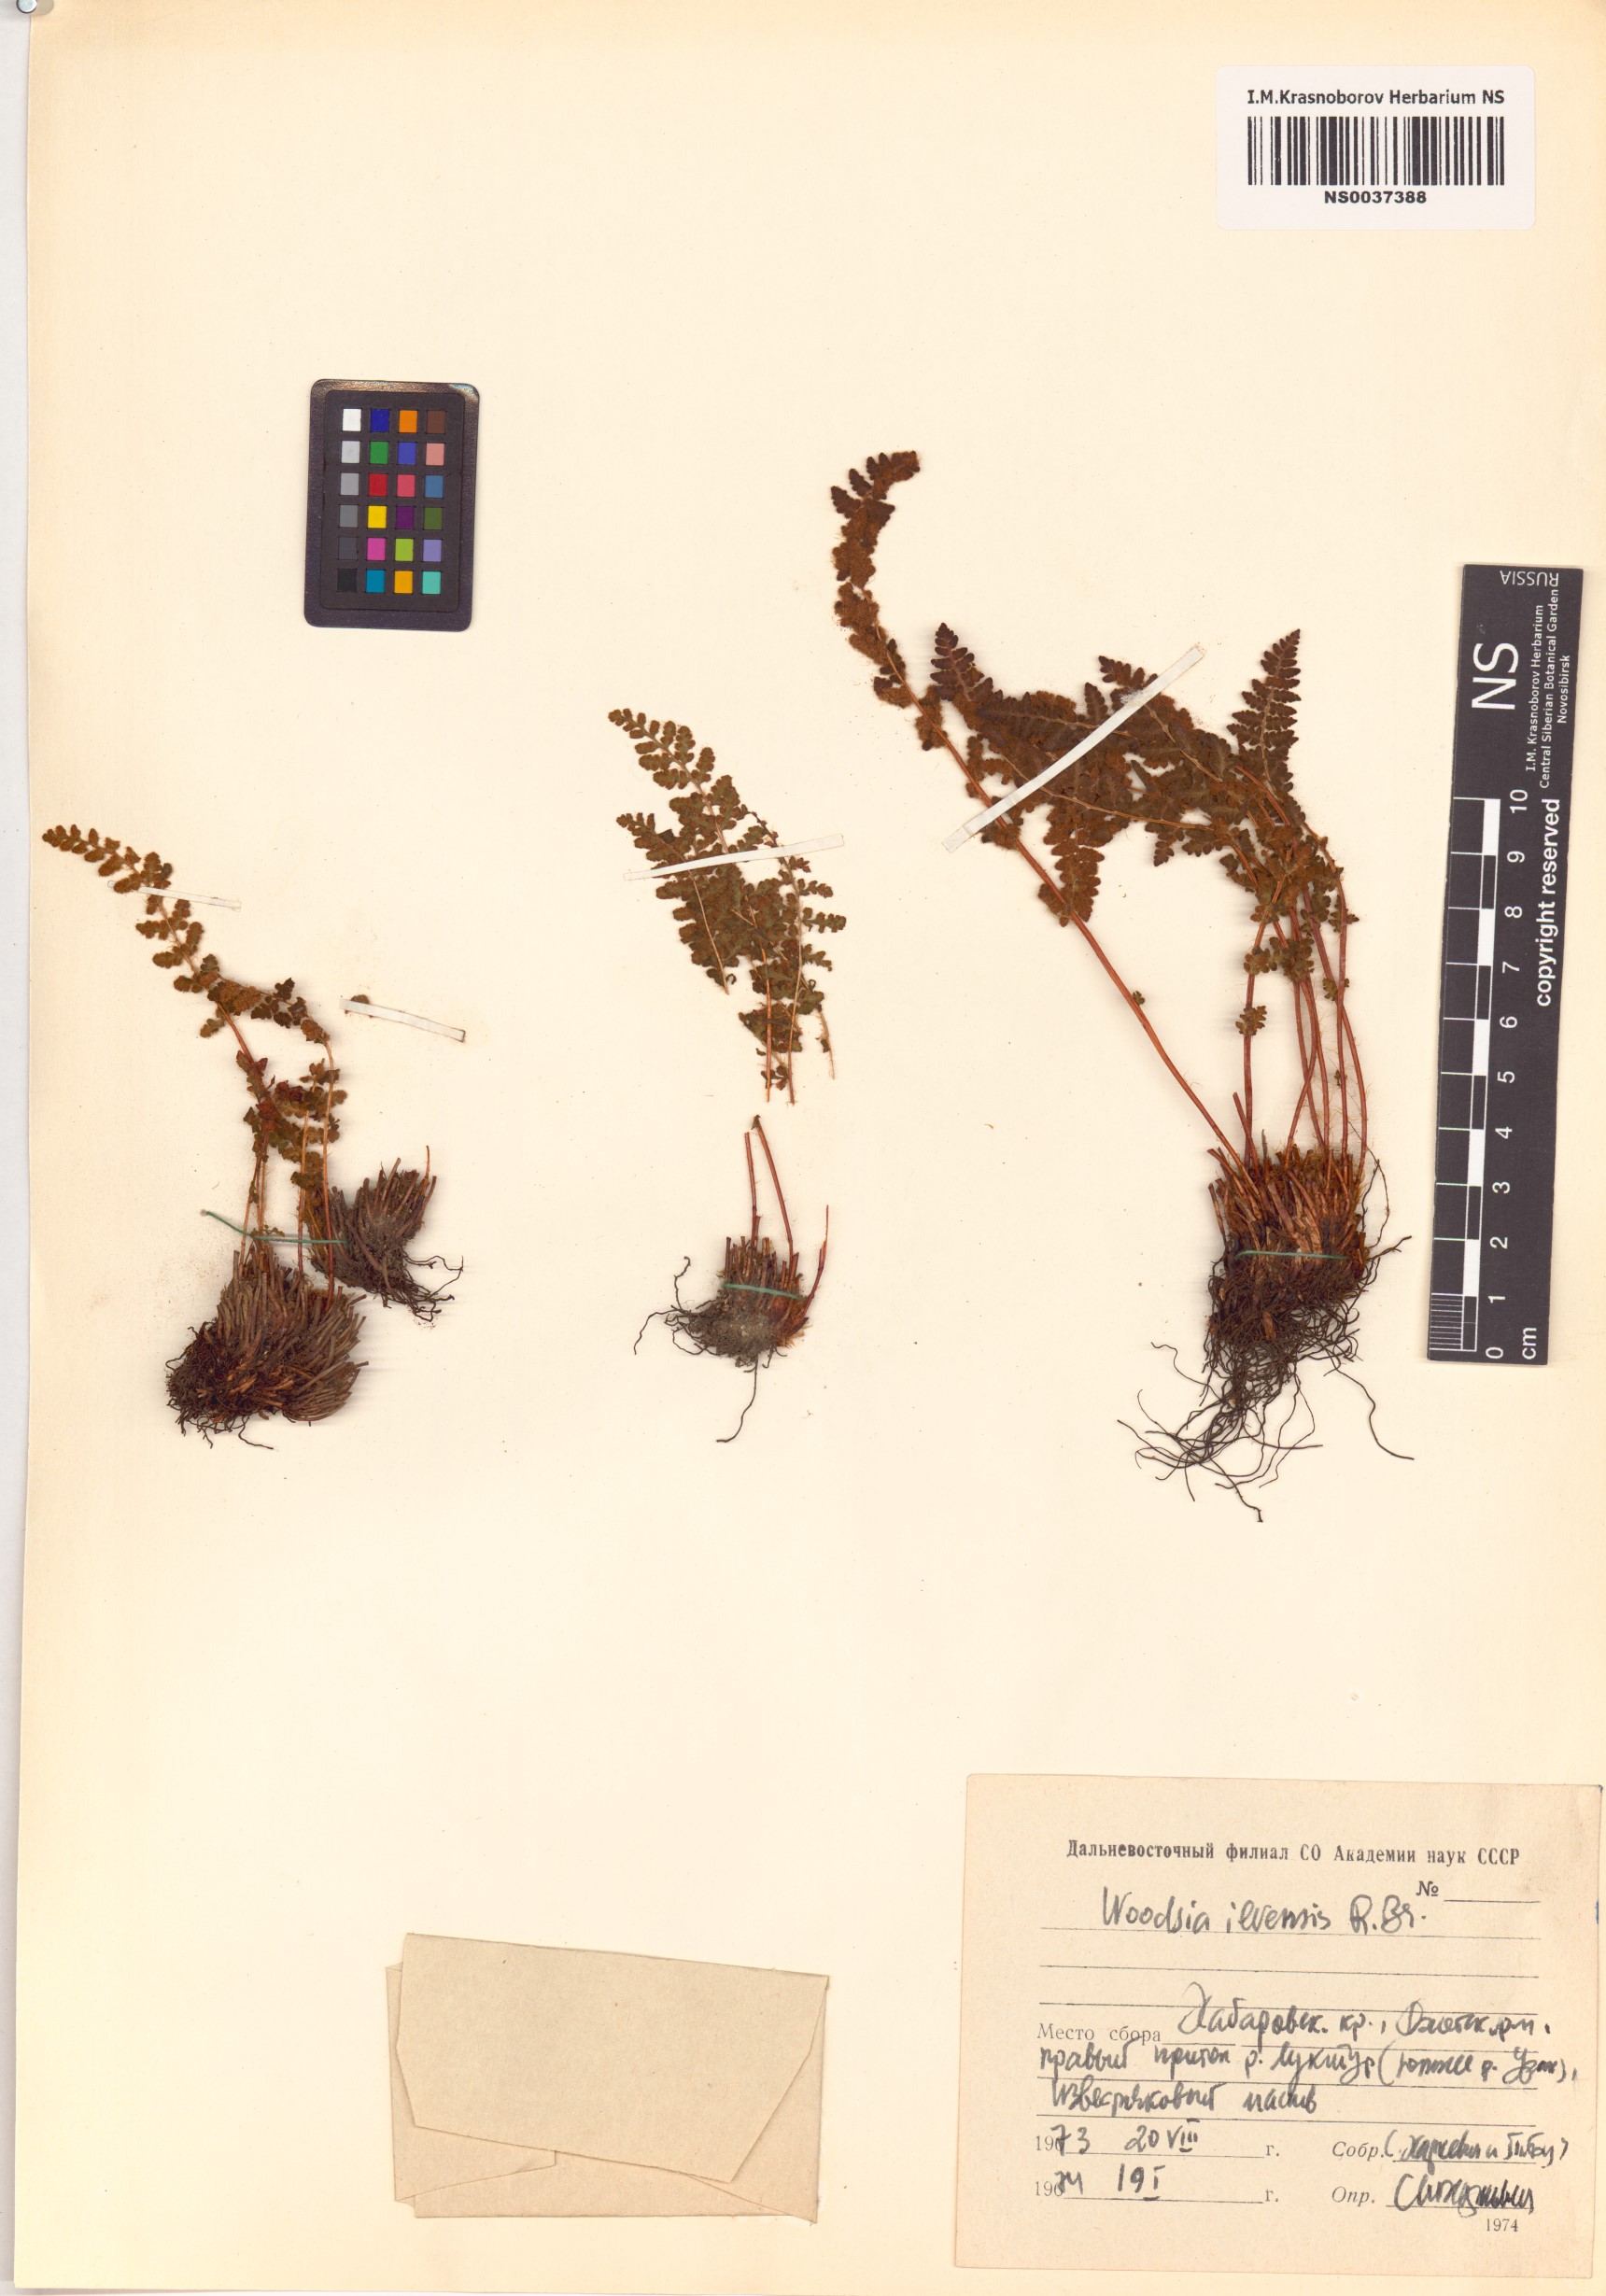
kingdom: Plantae
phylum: Tracheophyta
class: Polypodiopsida
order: Polypodiales
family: Woodsiaceae
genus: Woodsia
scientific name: Woodsia ilvensis
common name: Fragrant woodsia
